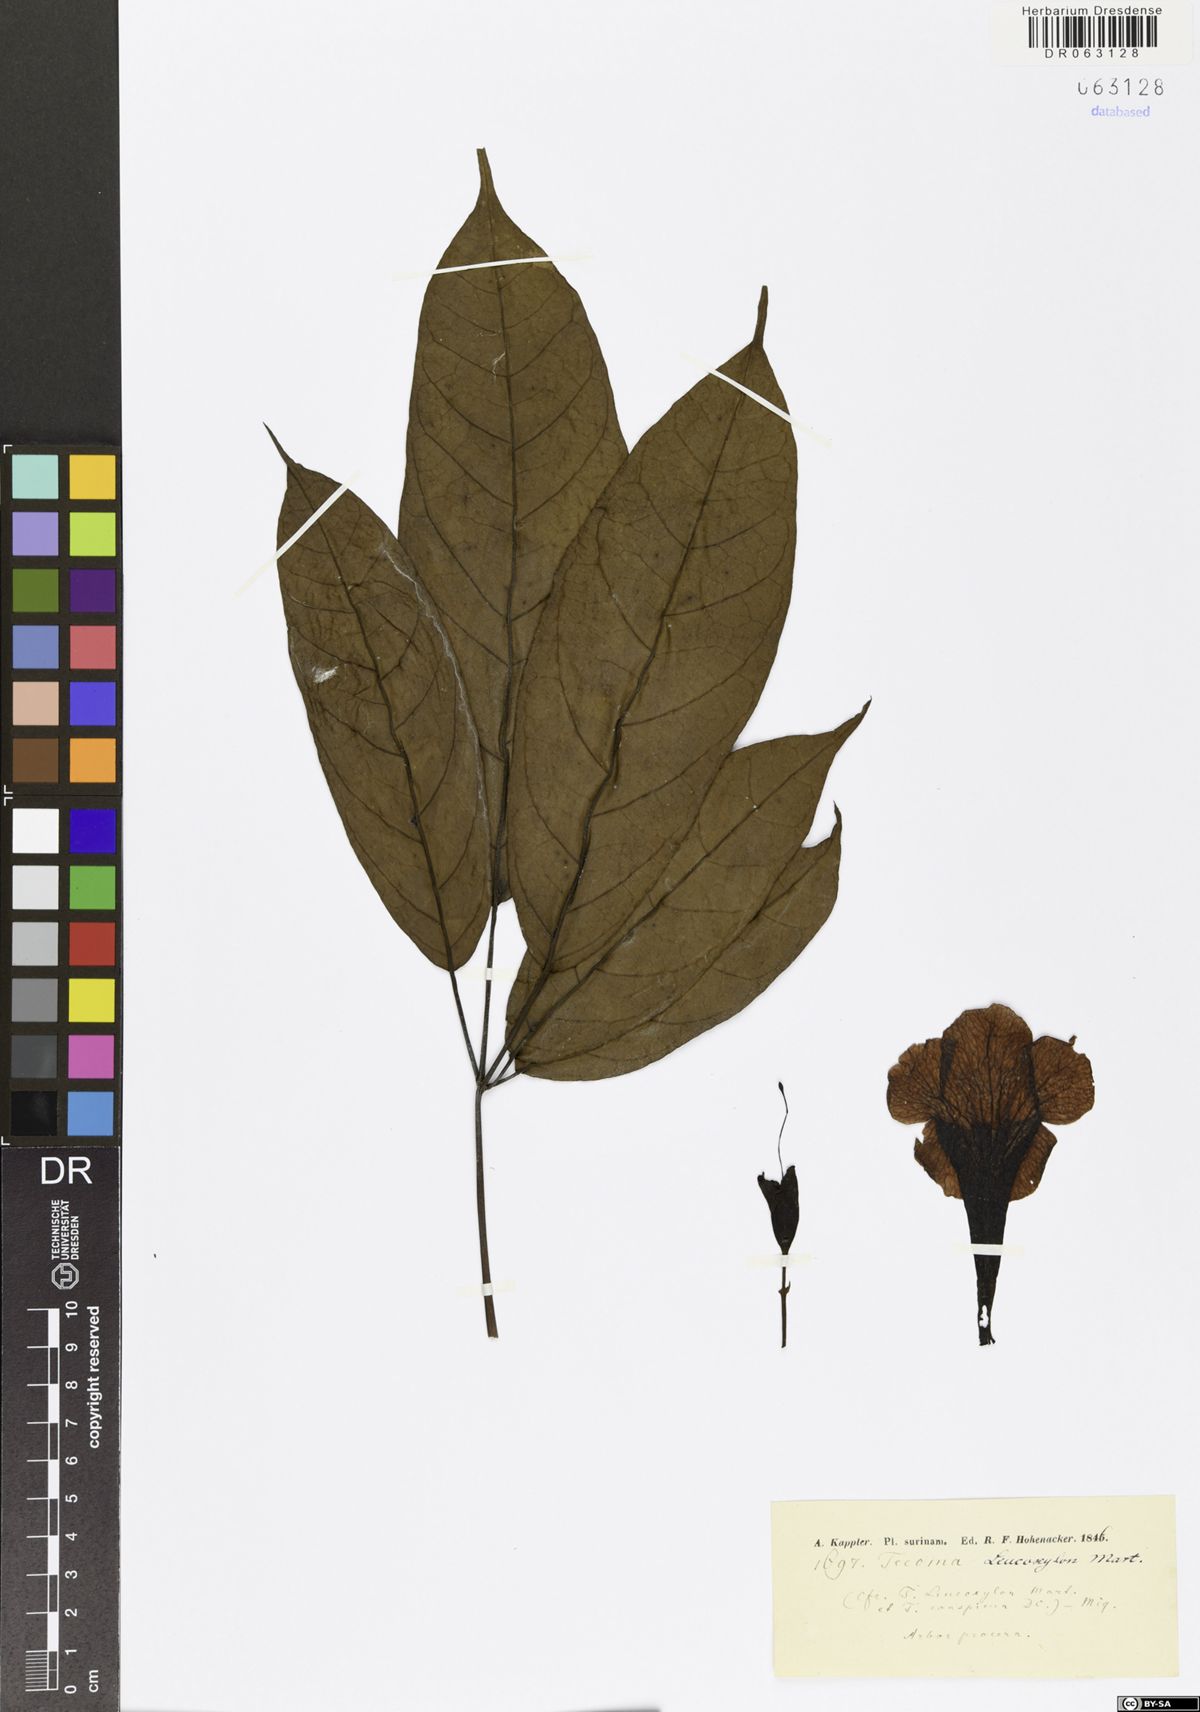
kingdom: Plantae
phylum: Tracheophyta
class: Magnoliopsida
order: Lamiales
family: Bignoniaceae
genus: Tecoma
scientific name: Tecoma leucoxylon
